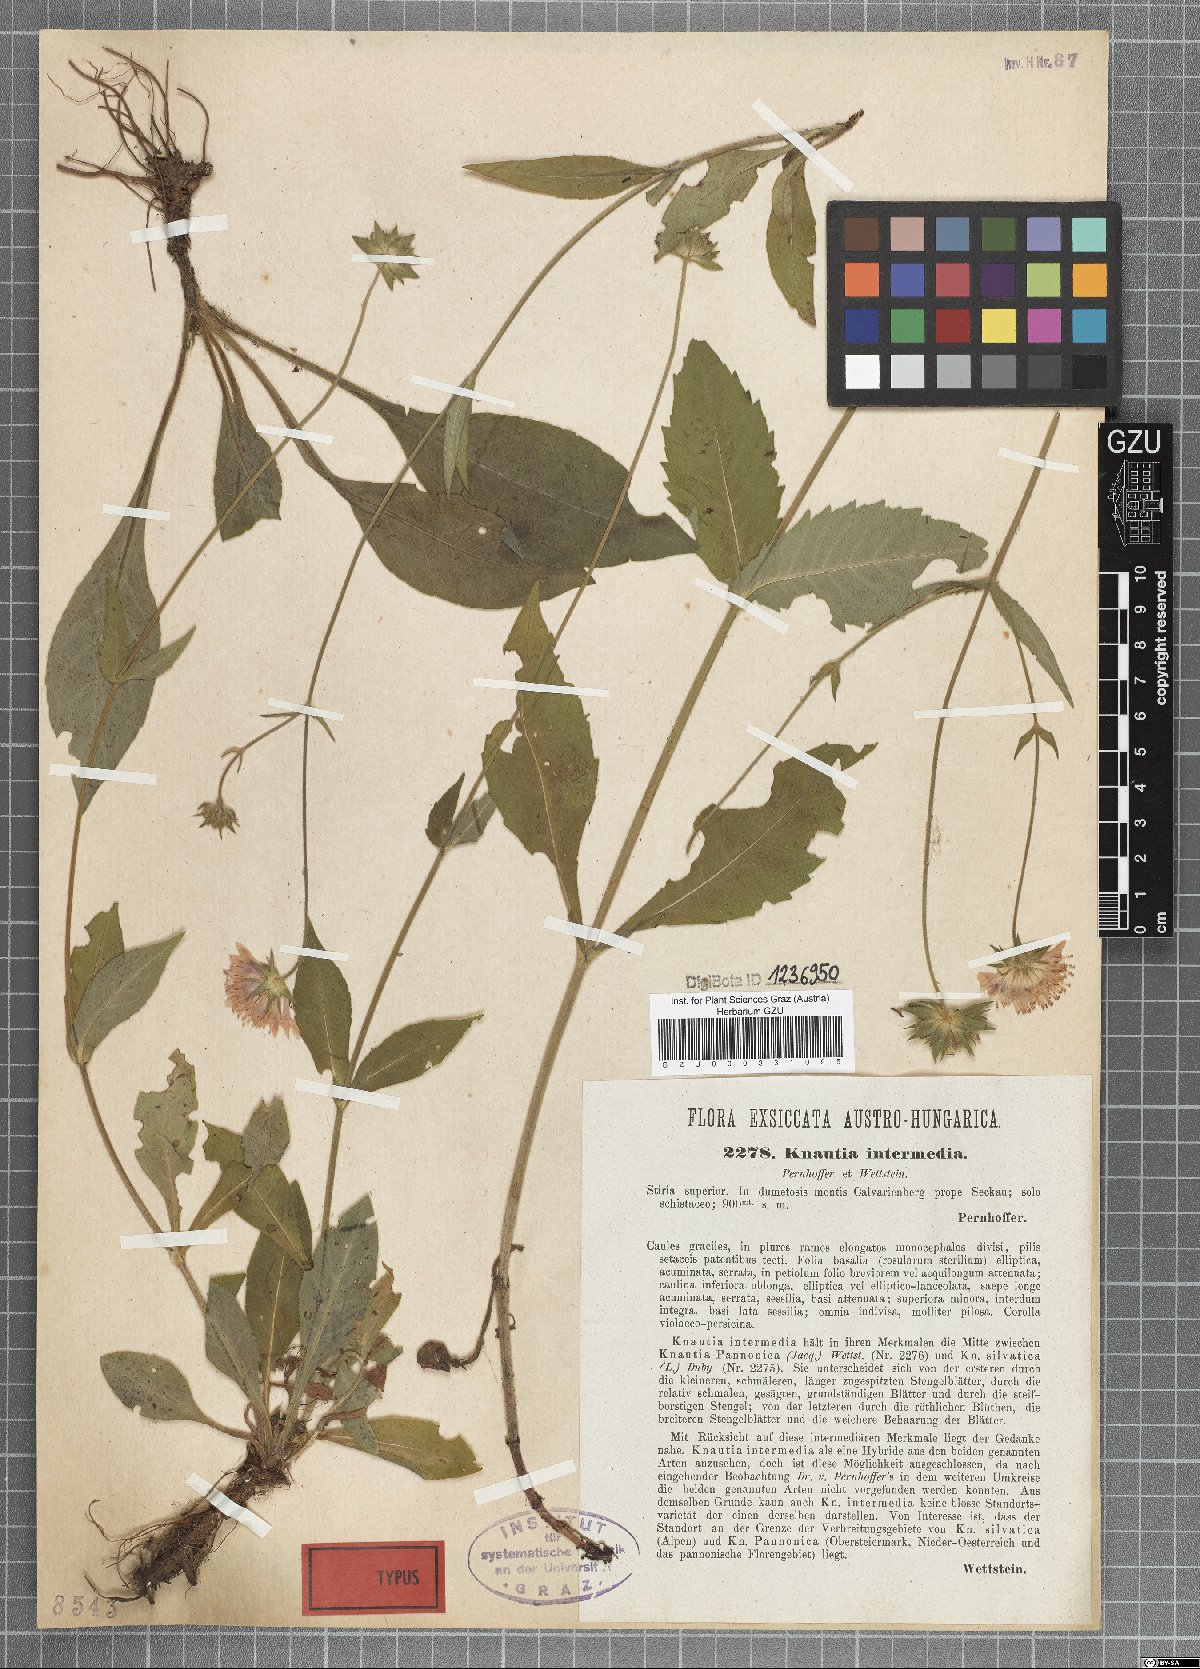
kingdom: Plantae
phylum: Tracheophyta
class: Magnoliopsida
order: Dipsacales
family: Caprifoliaceae
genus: Knautia
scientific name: Knautia drymeia
